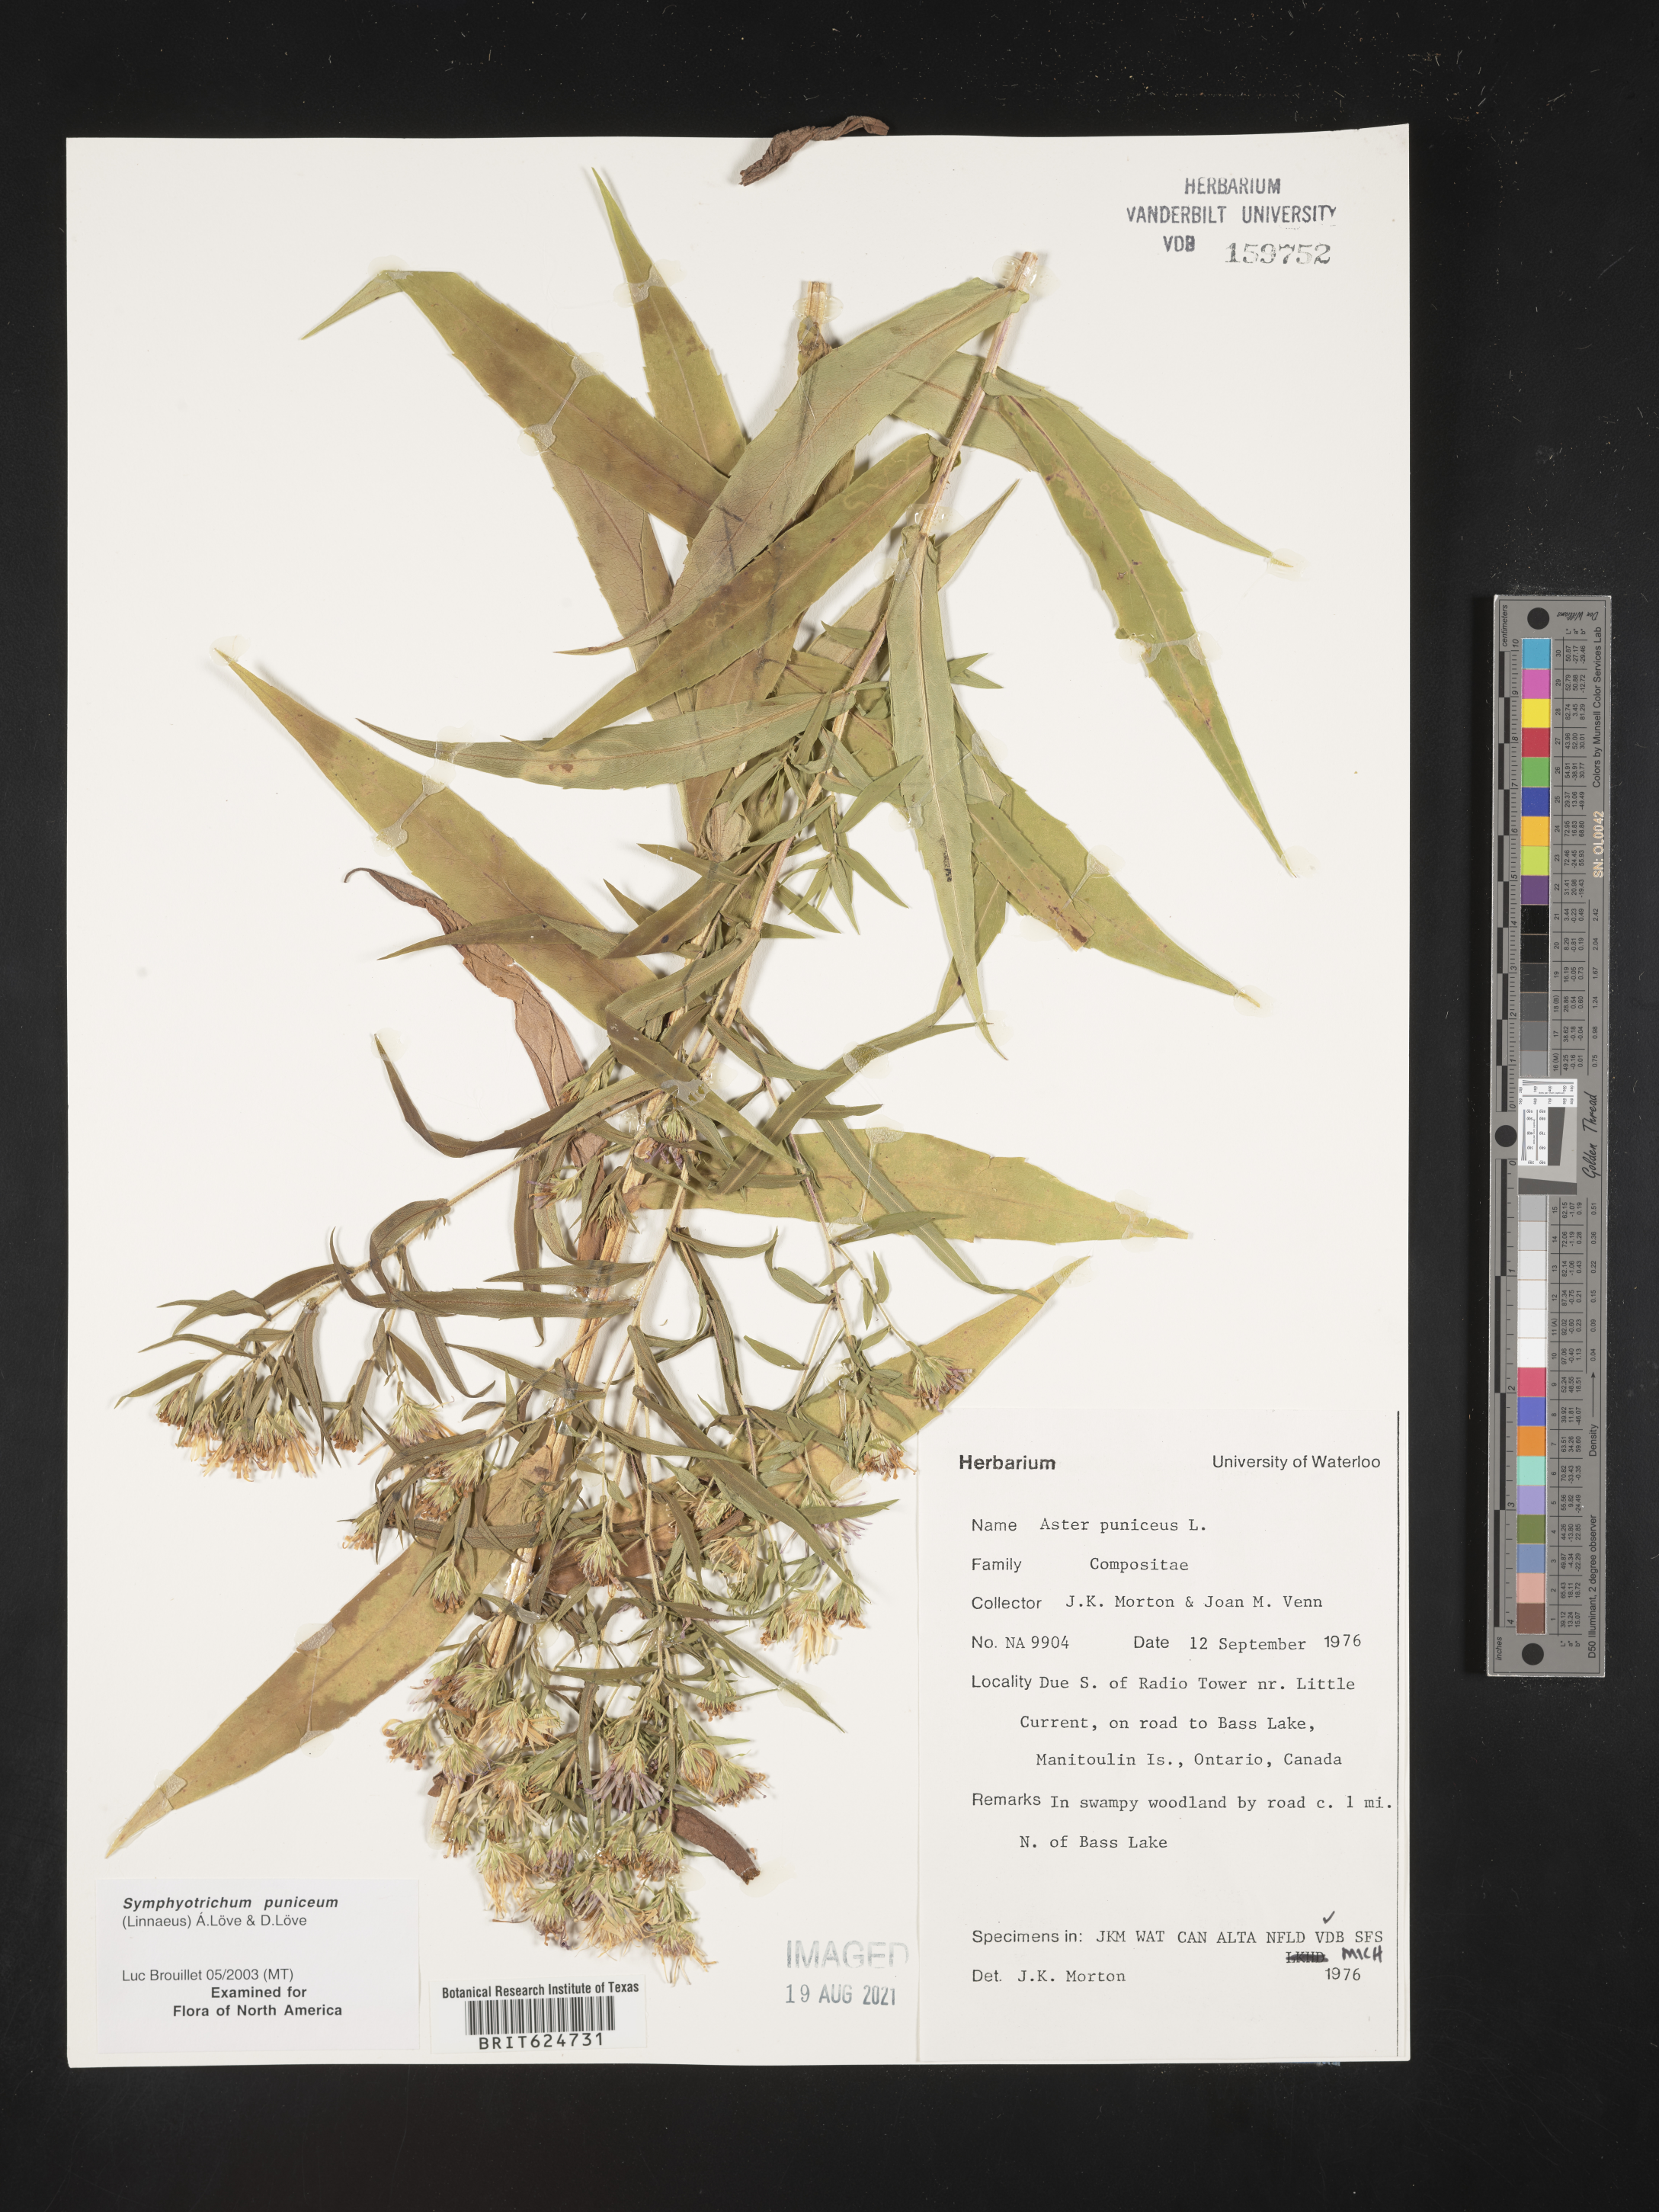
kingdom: Plantae
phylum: Tracheophyta
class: Magnoliopsida
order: Asterales
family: Asteraceae
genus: Symphyotrichum
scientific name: Symphyotrichum puniceum
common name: Bog aster
